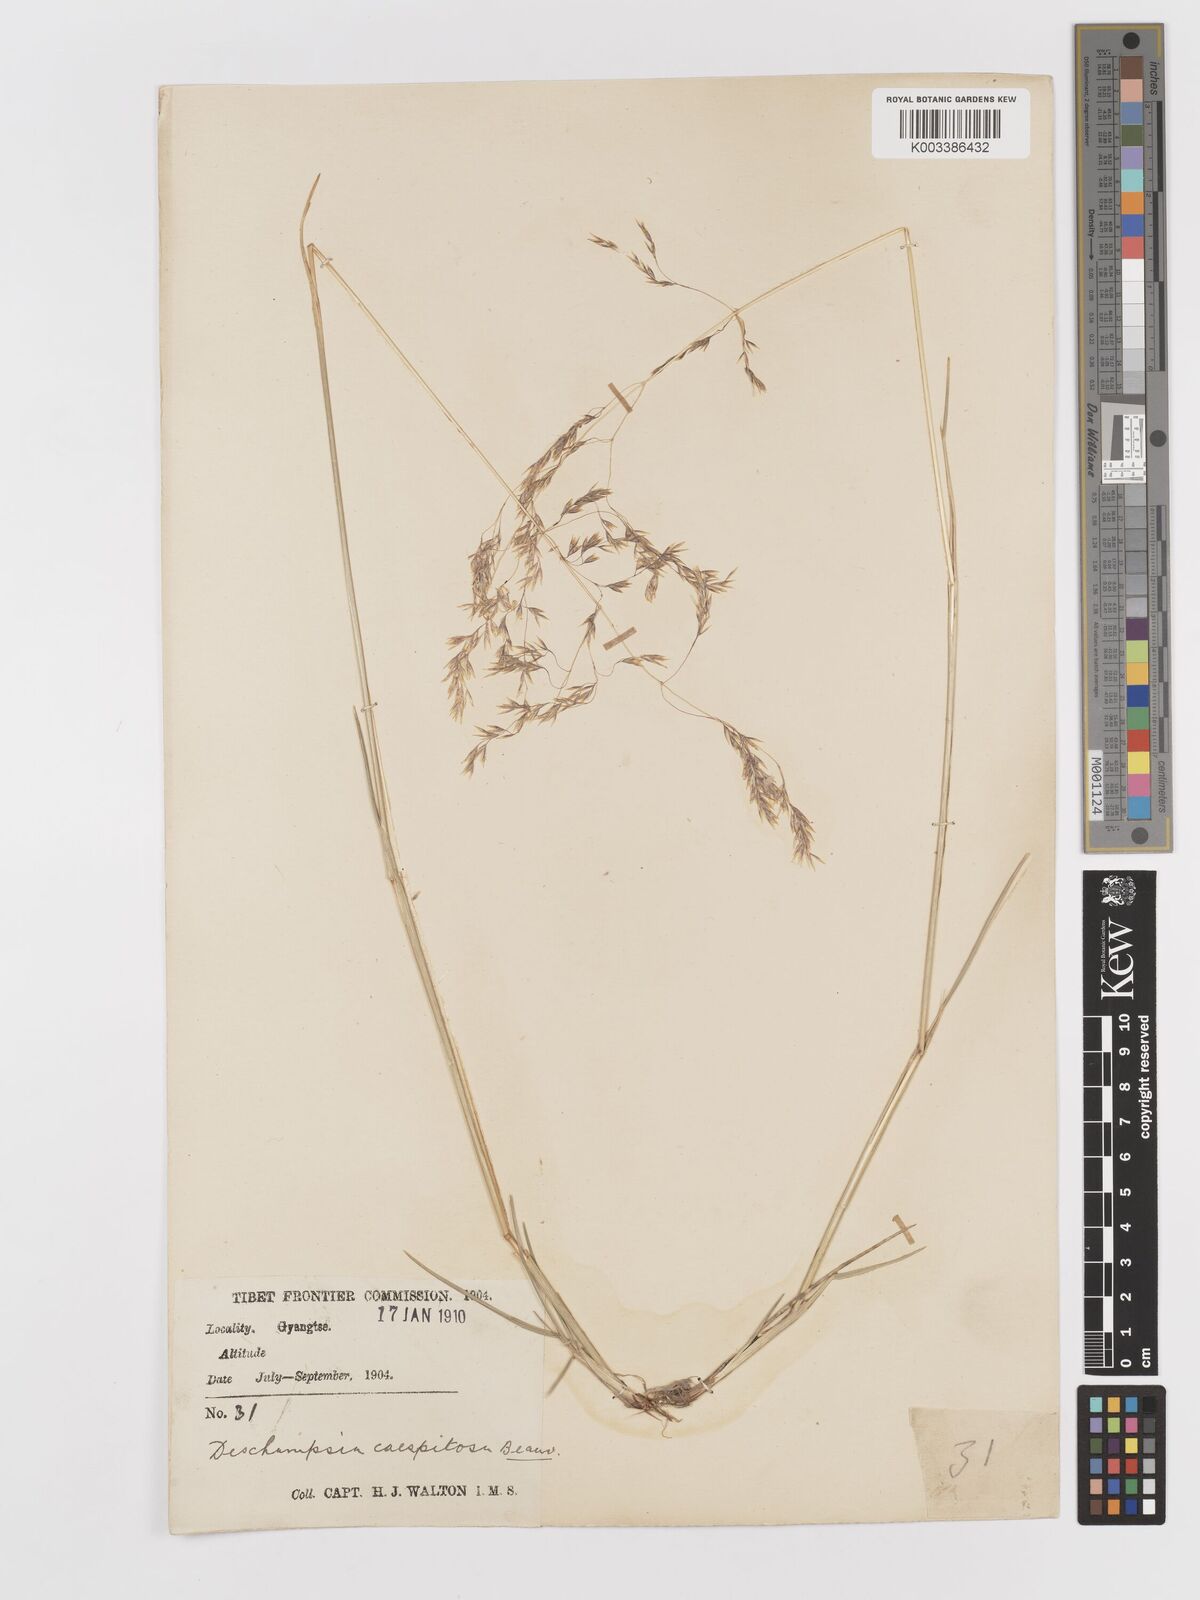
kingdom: Plantae
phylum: Tracheophyta
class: Liliopsida
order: Poales
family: Poaceae
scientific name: Poaceae
